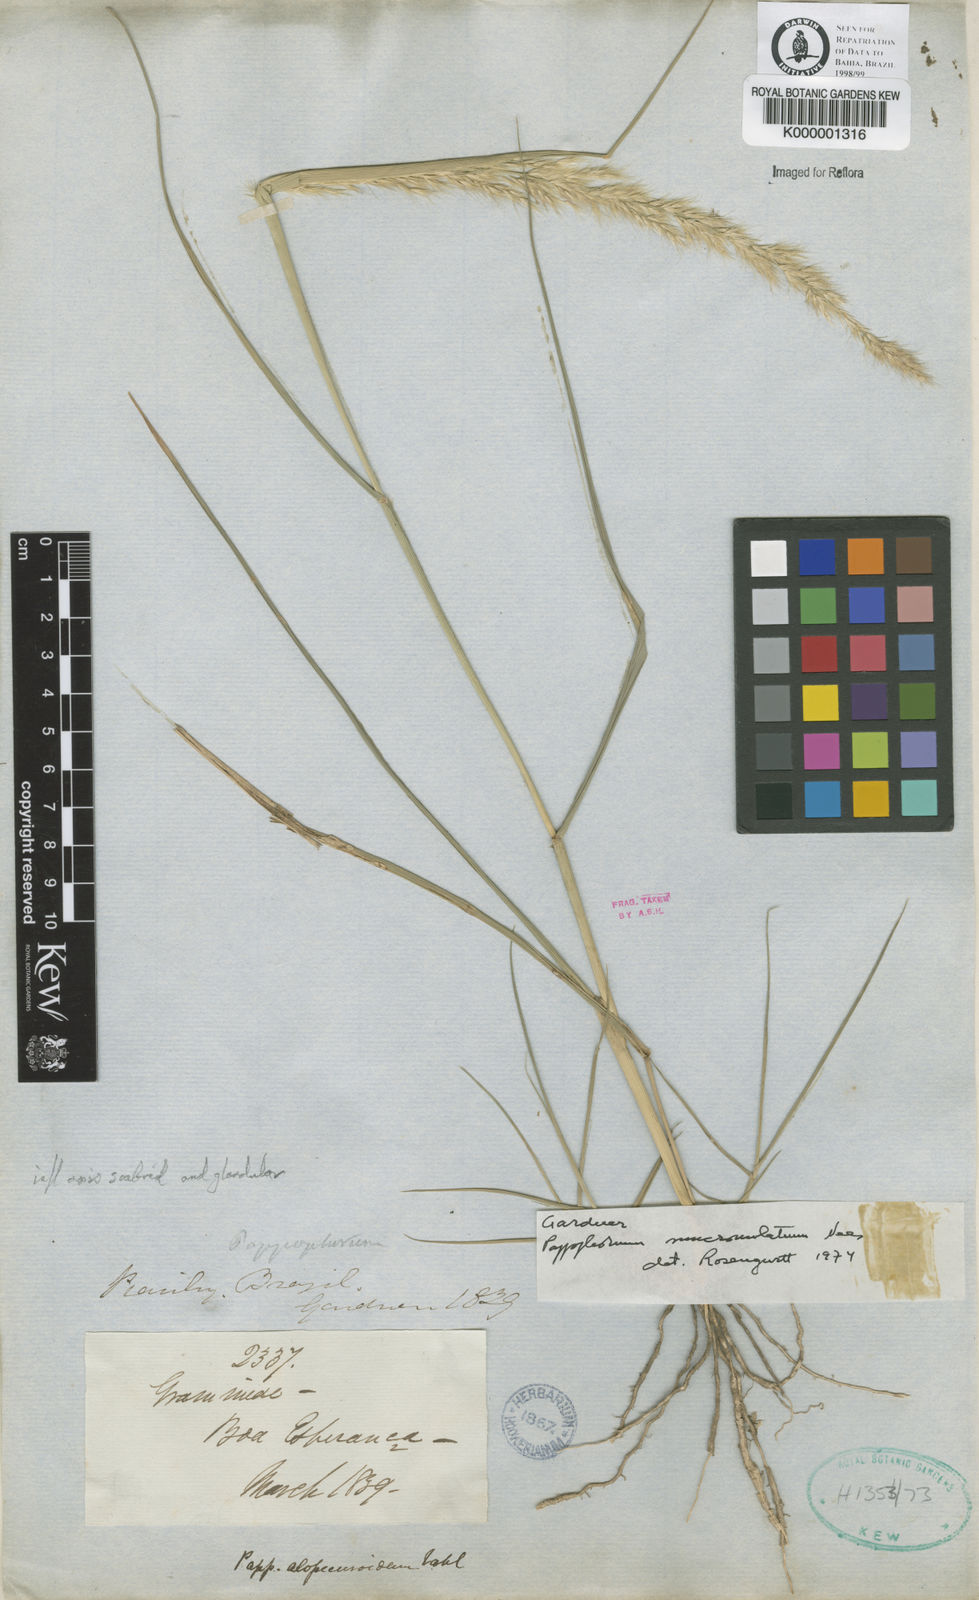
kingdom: Plantae
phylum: Tracheophyta
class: Liliopsida
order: Poales
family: Poaceae
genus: Pappophorum
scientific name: Pappophorum mucronulatum
